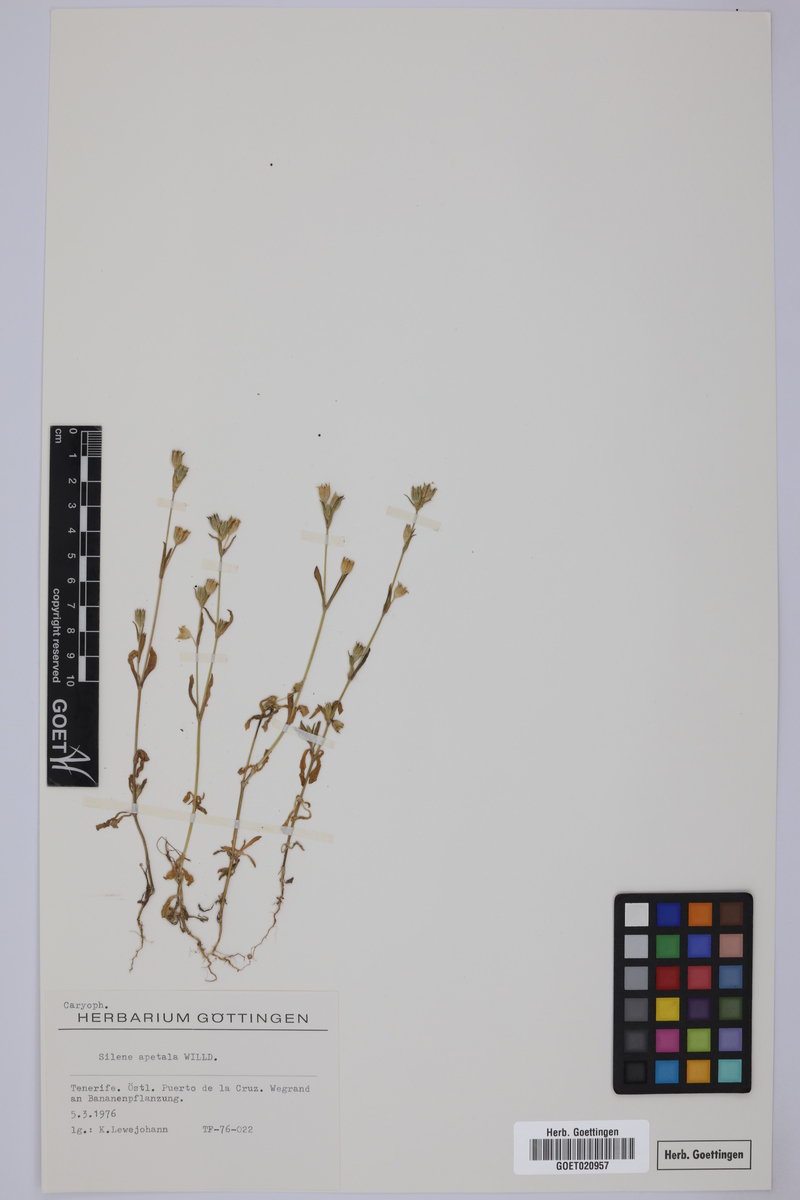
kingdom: Plantae
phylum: Tracheophyta
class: Magnoliopsida
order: Caryophyllales
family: Caryophyllaceae
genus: Silene
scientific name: Silene apetala
